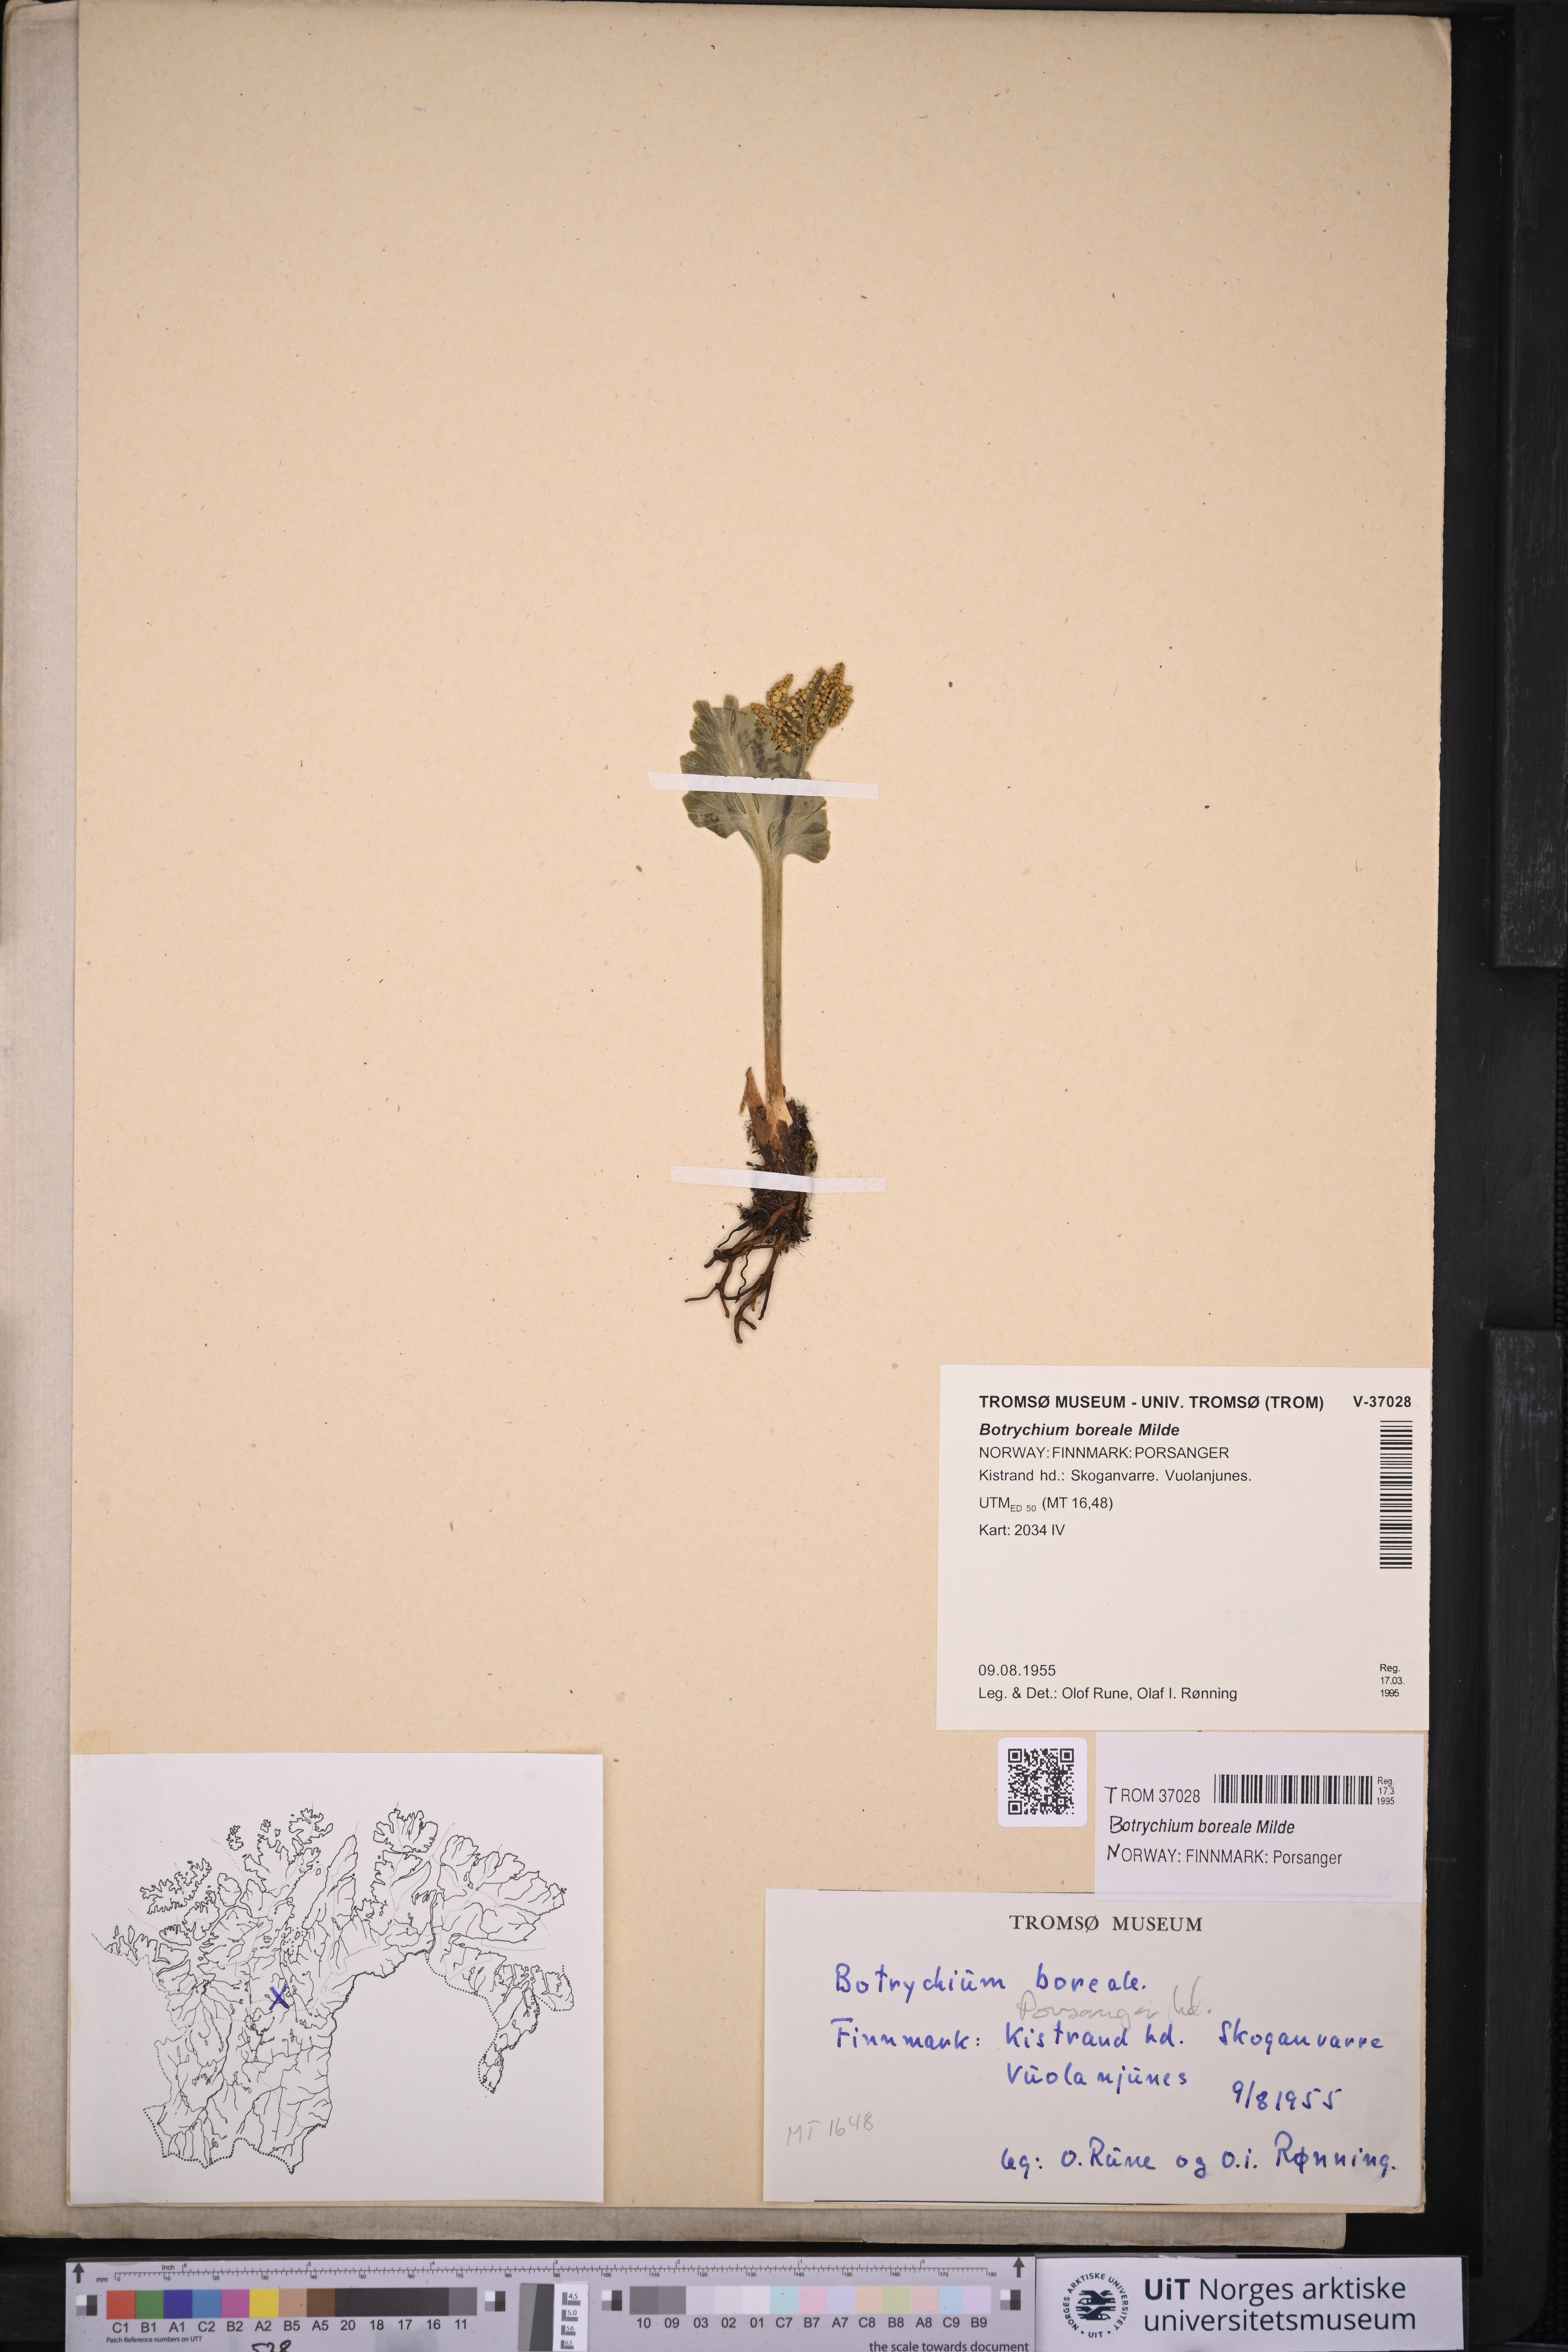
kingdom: Plantae
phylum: Tracheophyta
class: Polypodiopsida
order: Ophioglossales
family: Ophioglossaceae
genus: Botrychium
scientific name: Botrychium boreale
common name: Boreal moonwort
